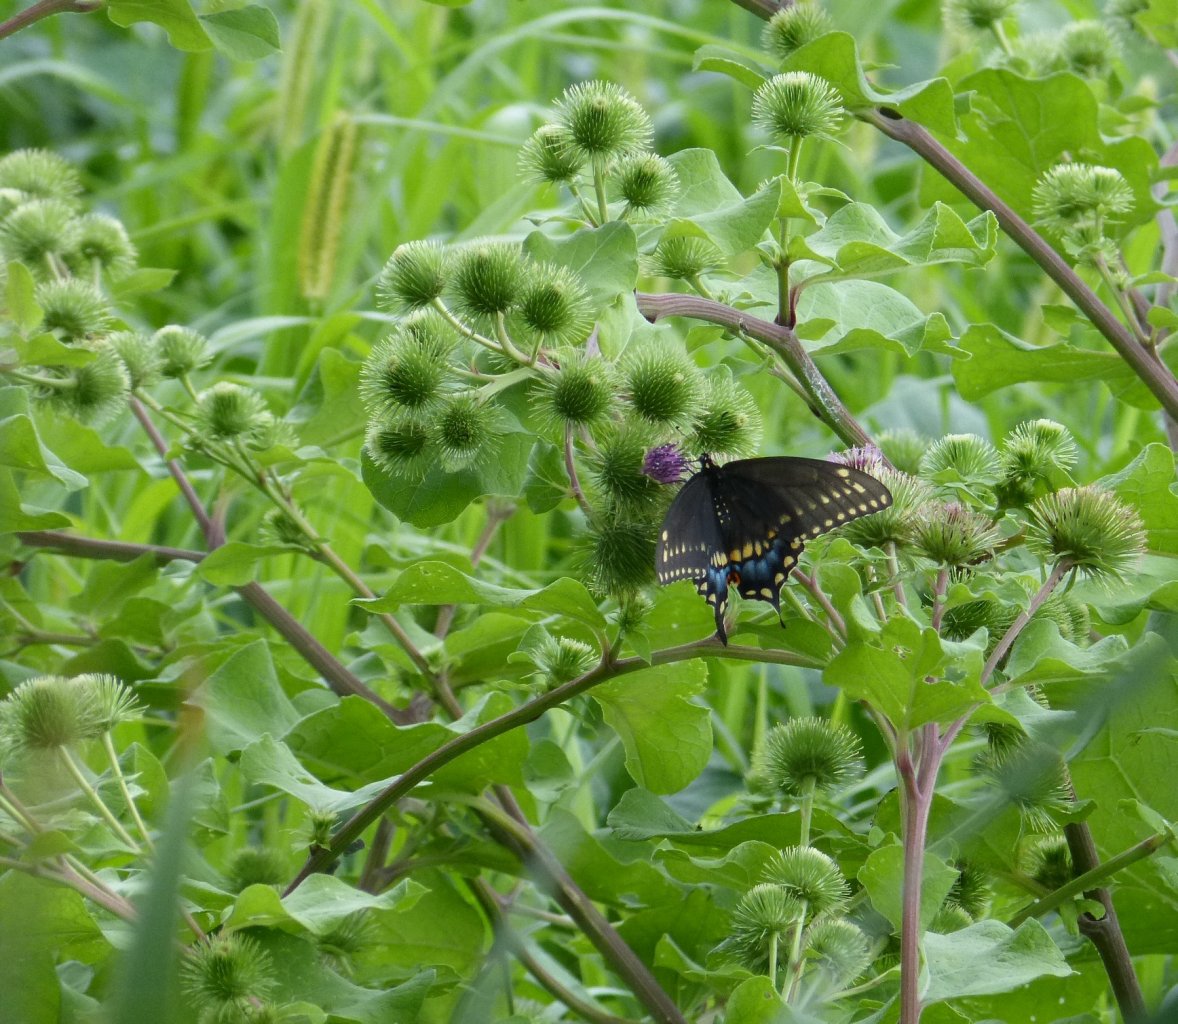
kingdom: Animalia
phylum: Arthropoda
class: Insecta
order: Lepidoptera
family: Papilionidae
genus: Papilio
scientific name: Papilio polyxenes
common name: Black Swallowtail
